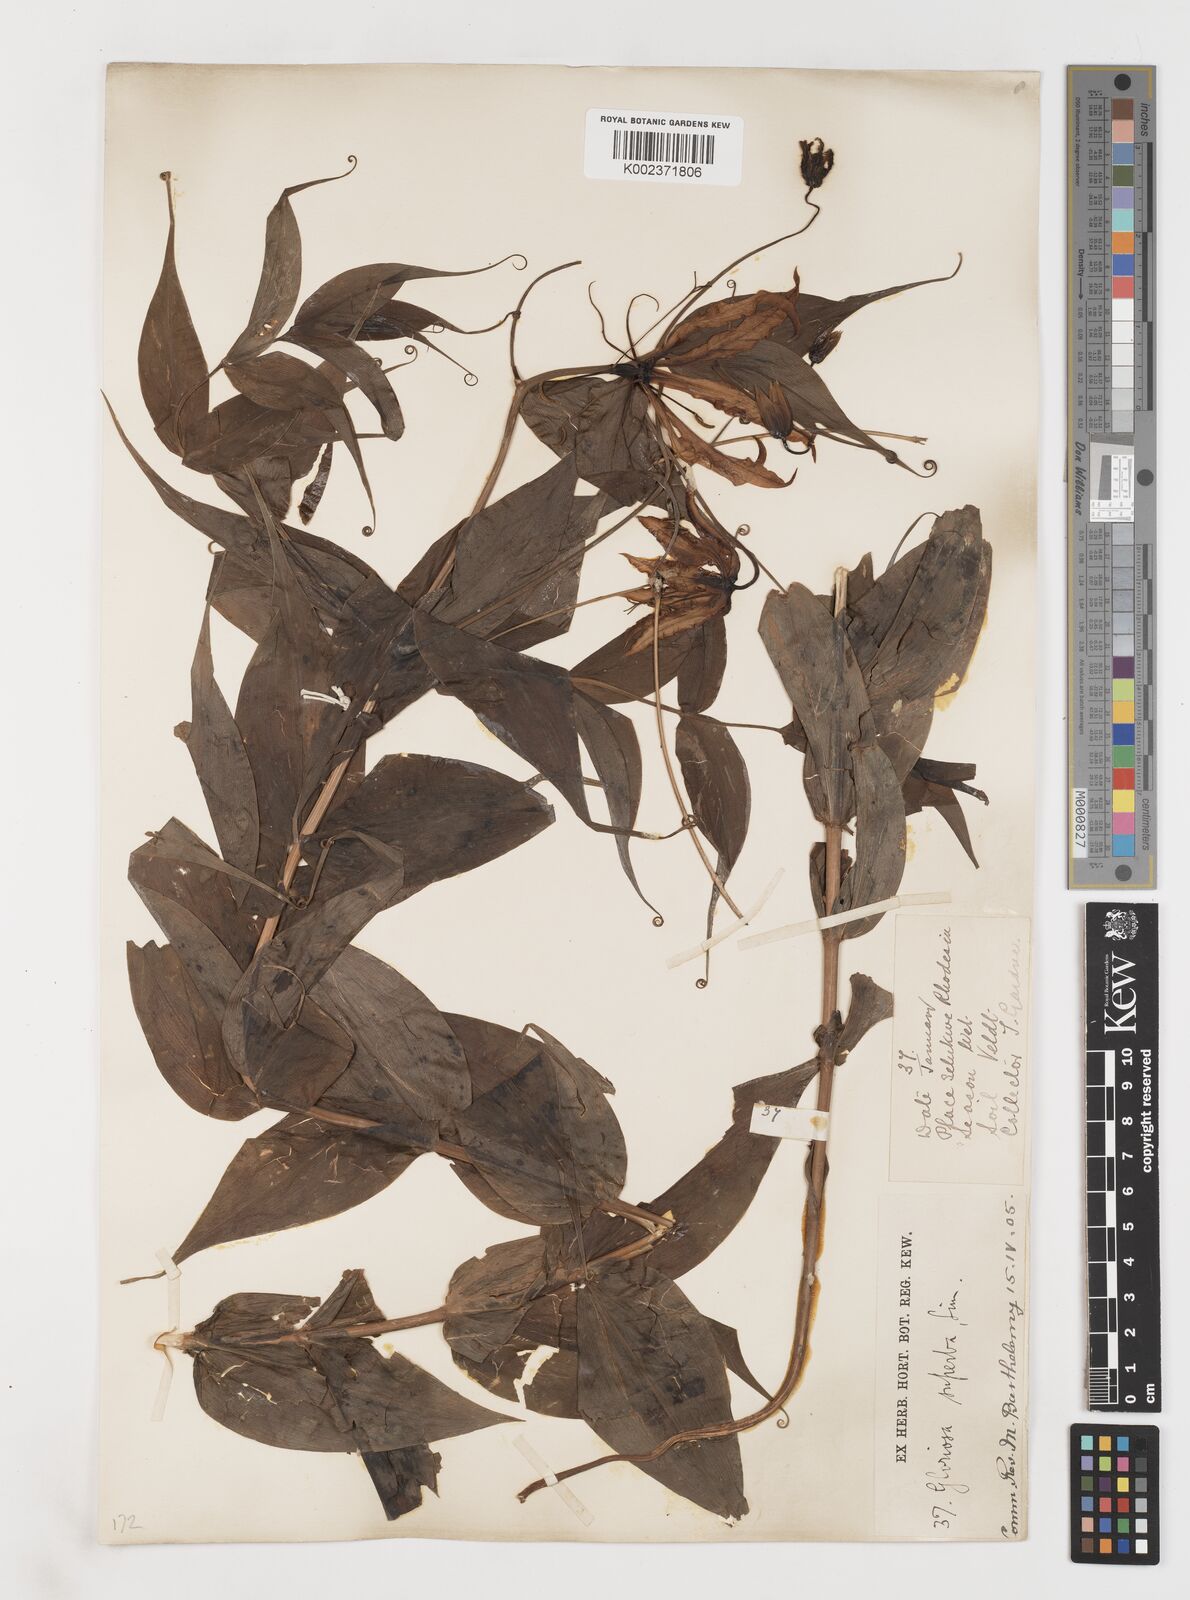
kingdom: Plantae
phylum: Tracheophyta
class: Liliopsida
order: Liliales
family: Colchicaceae
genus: Gloriosa
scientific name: Gloriosa simplex
